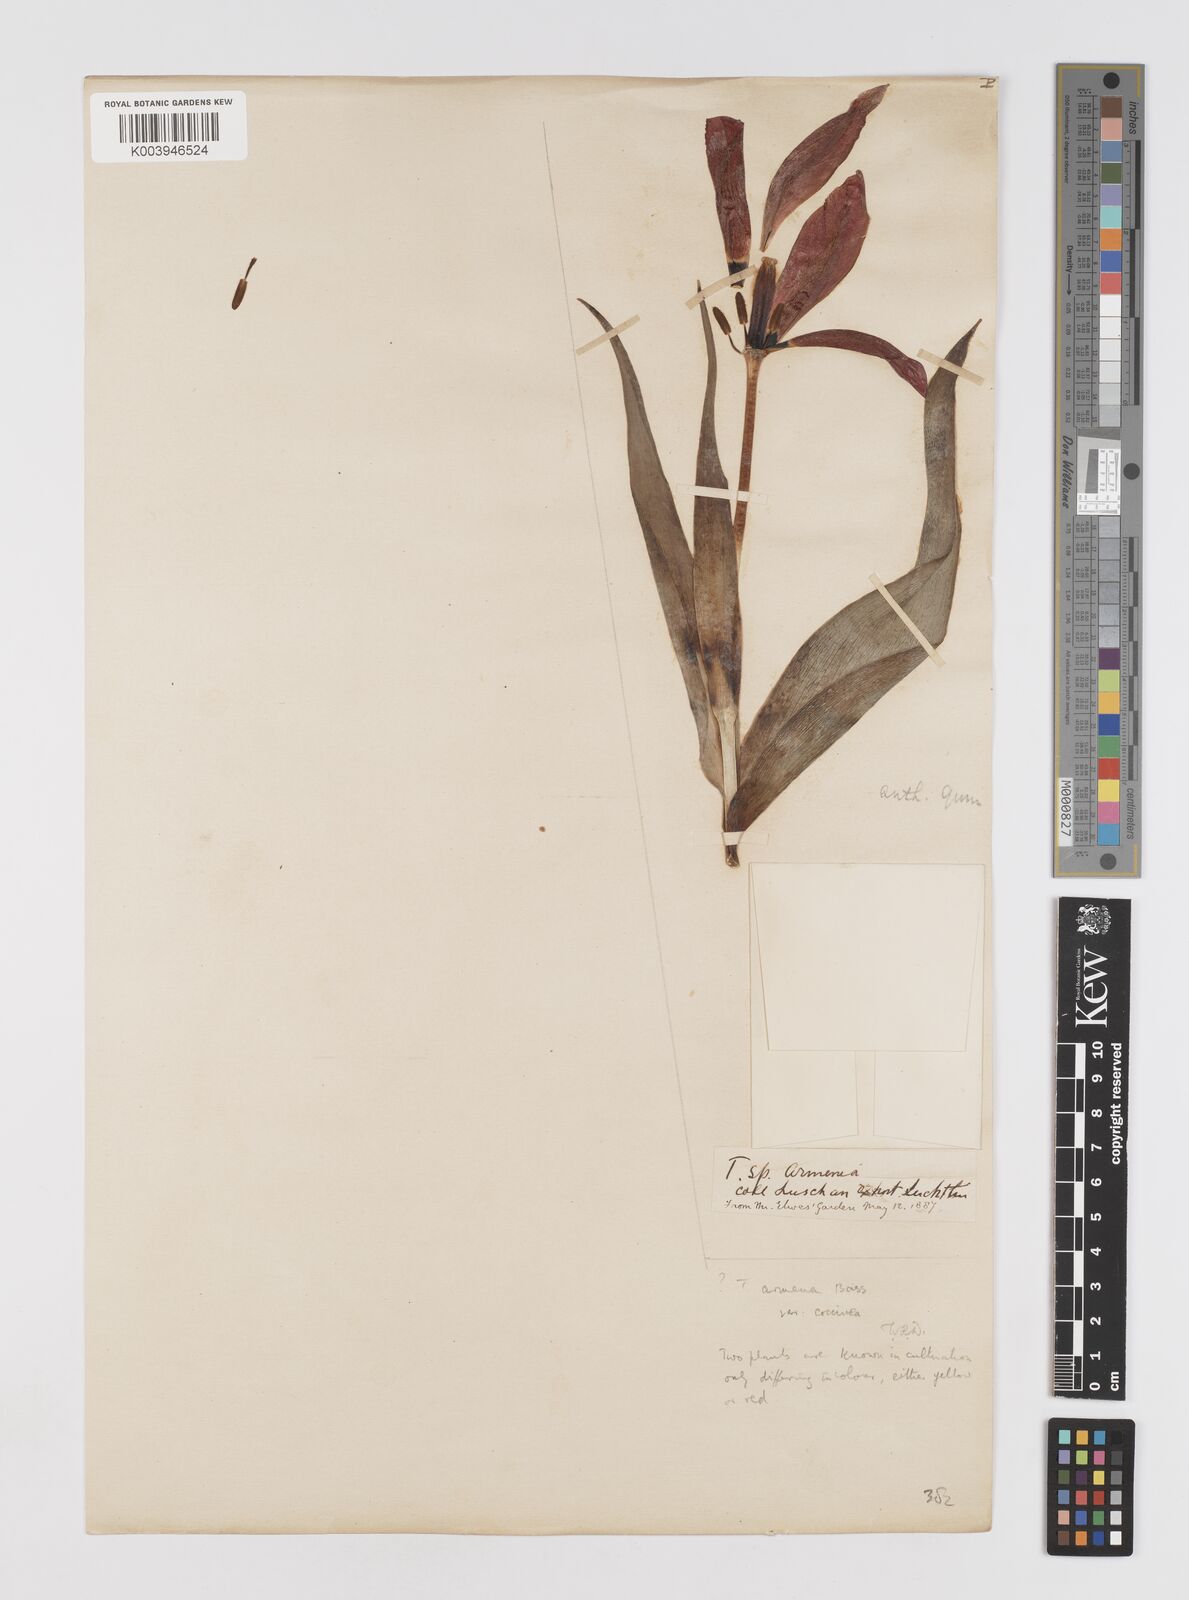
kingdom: Plantae
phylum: Tracheophyta
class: Liliopsida
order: Liliales
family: Liliaceae
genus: Tulipa
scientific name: Tulipa
